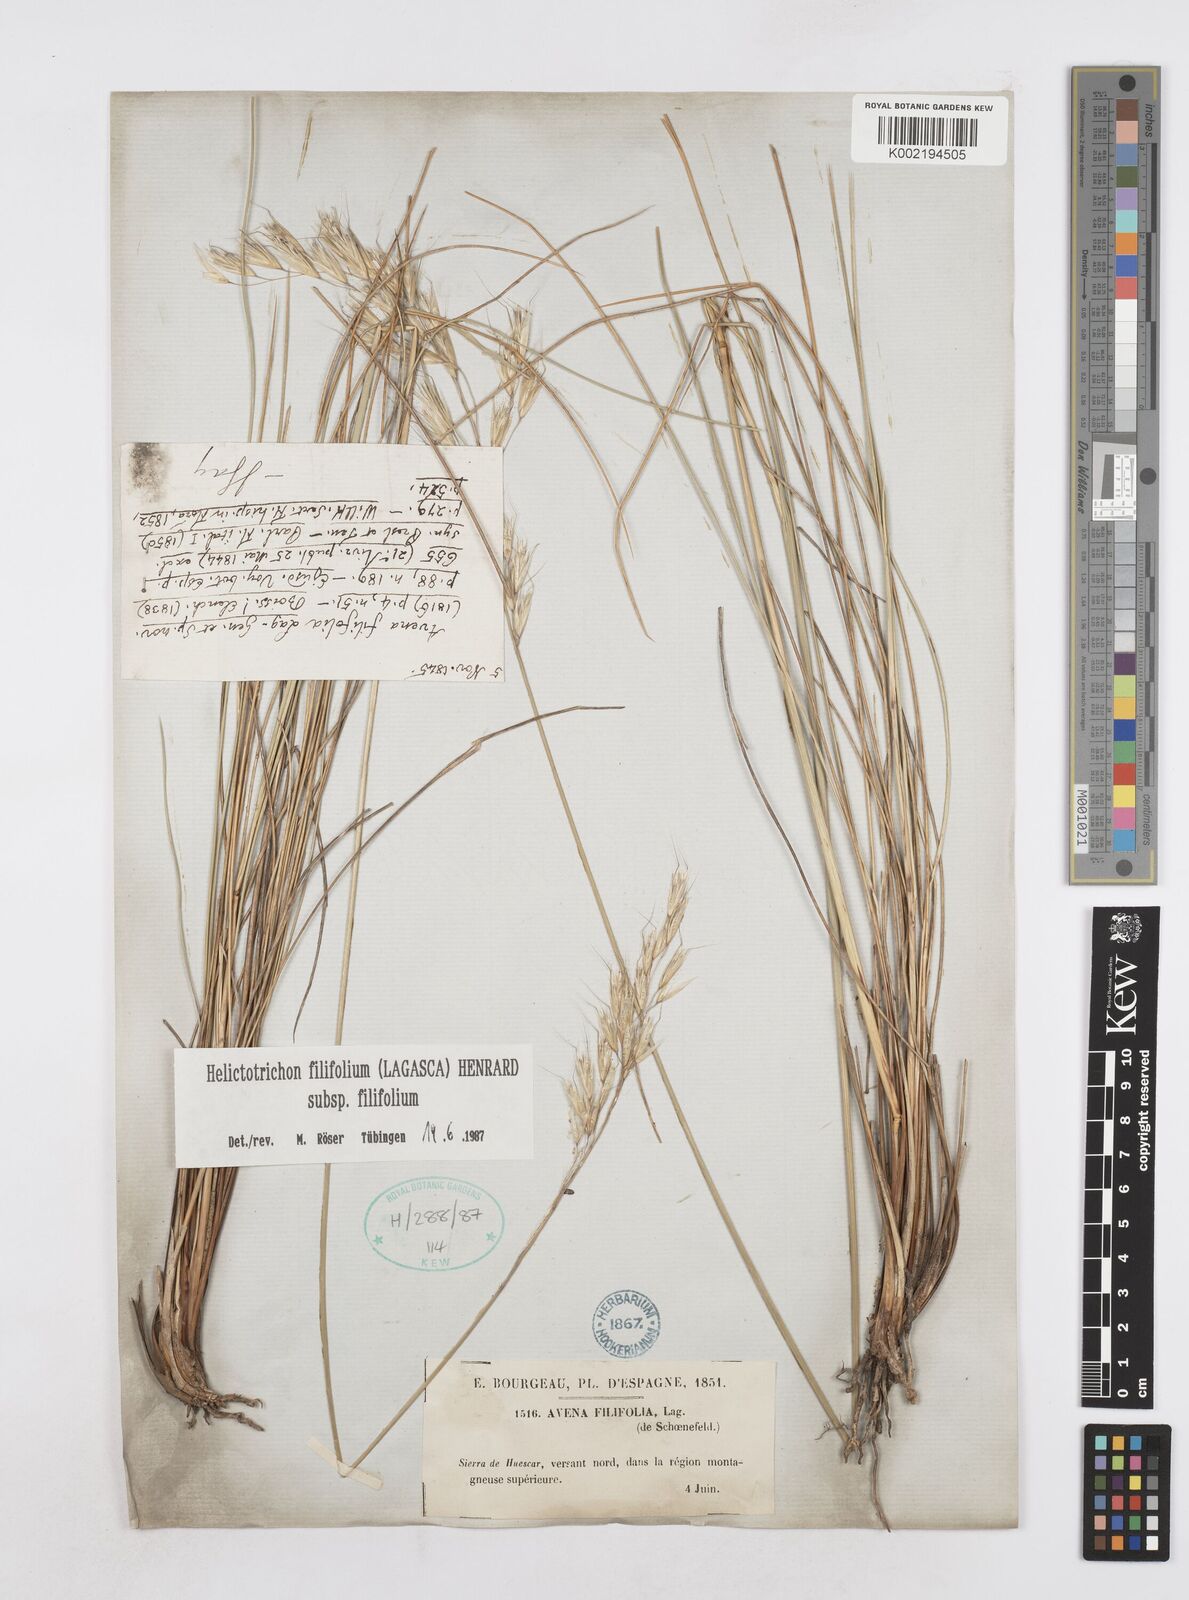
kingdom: Plantae
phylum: Tracheophyta
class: Liliopsida
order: Poales
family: Poaceae
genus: Helictotrichon
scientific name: Helictotrichon filifolium
